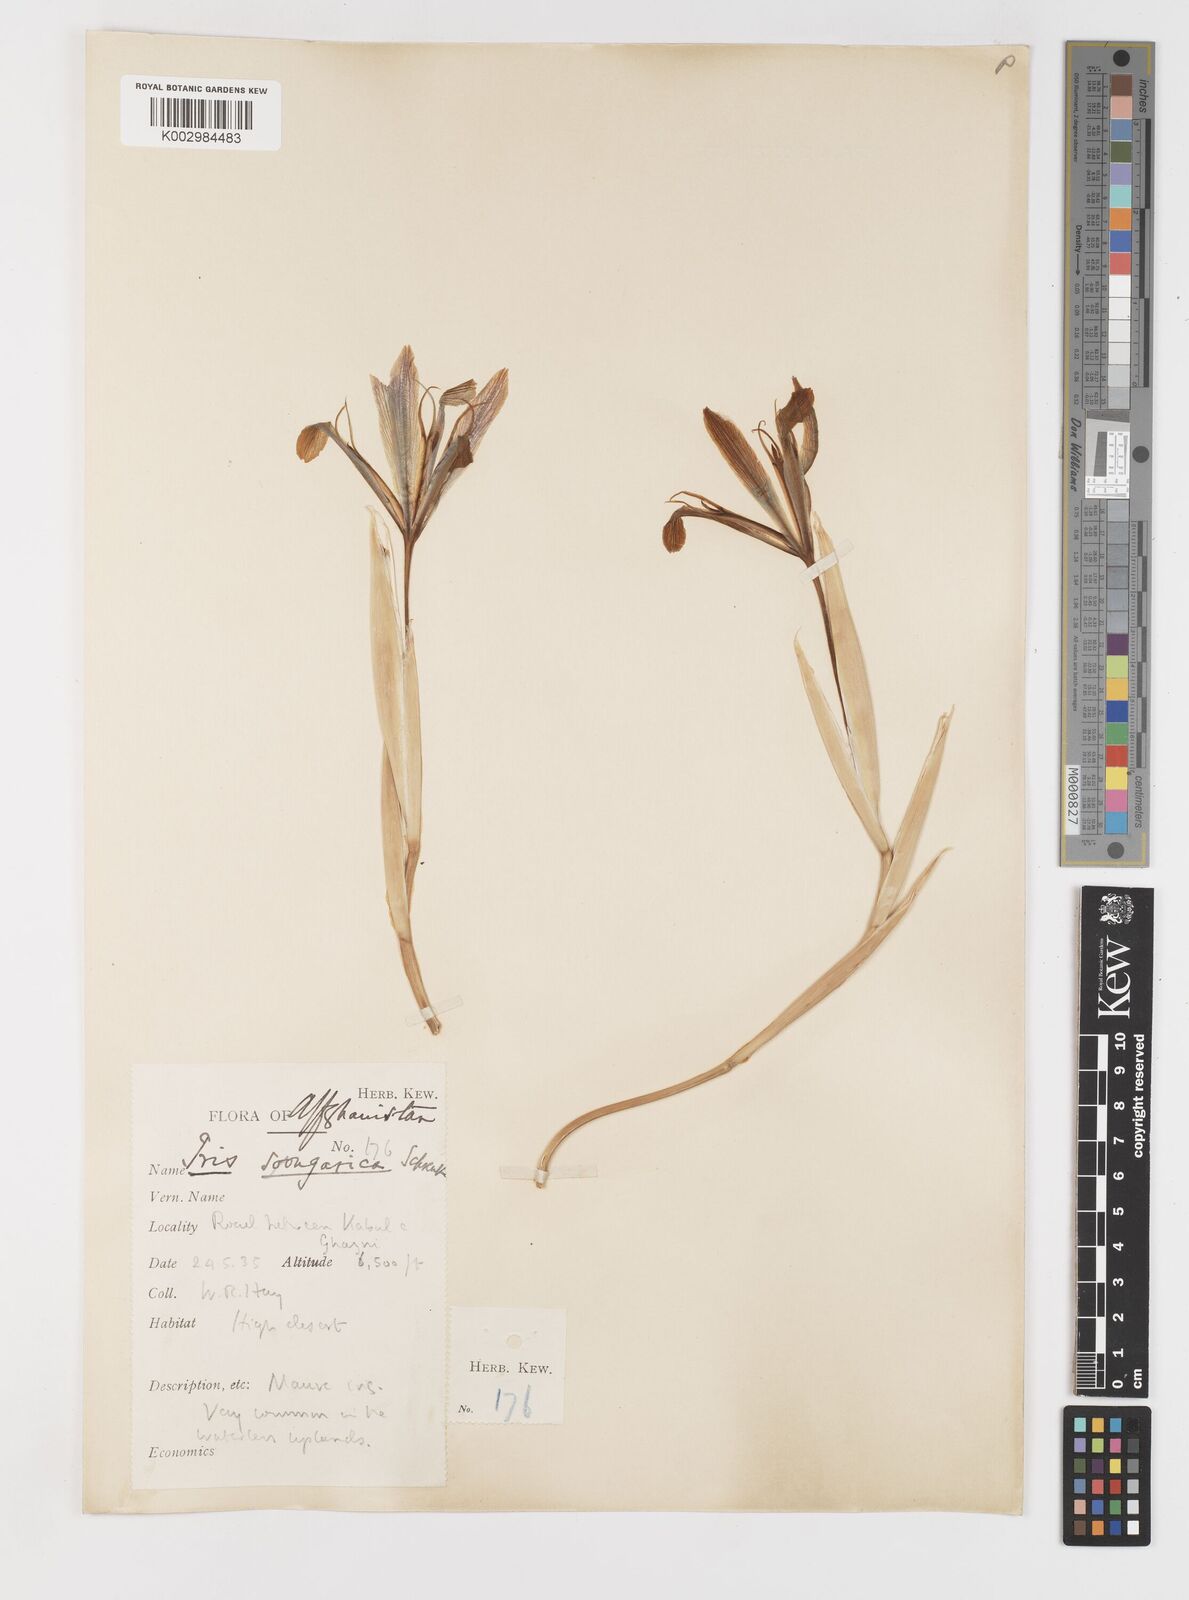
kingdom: Plantae
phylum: Tracheophyta
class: Liliopsida
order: Asparagales
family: Iridaceae
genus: Iris
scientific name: Iris songarica
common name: Songar iris
